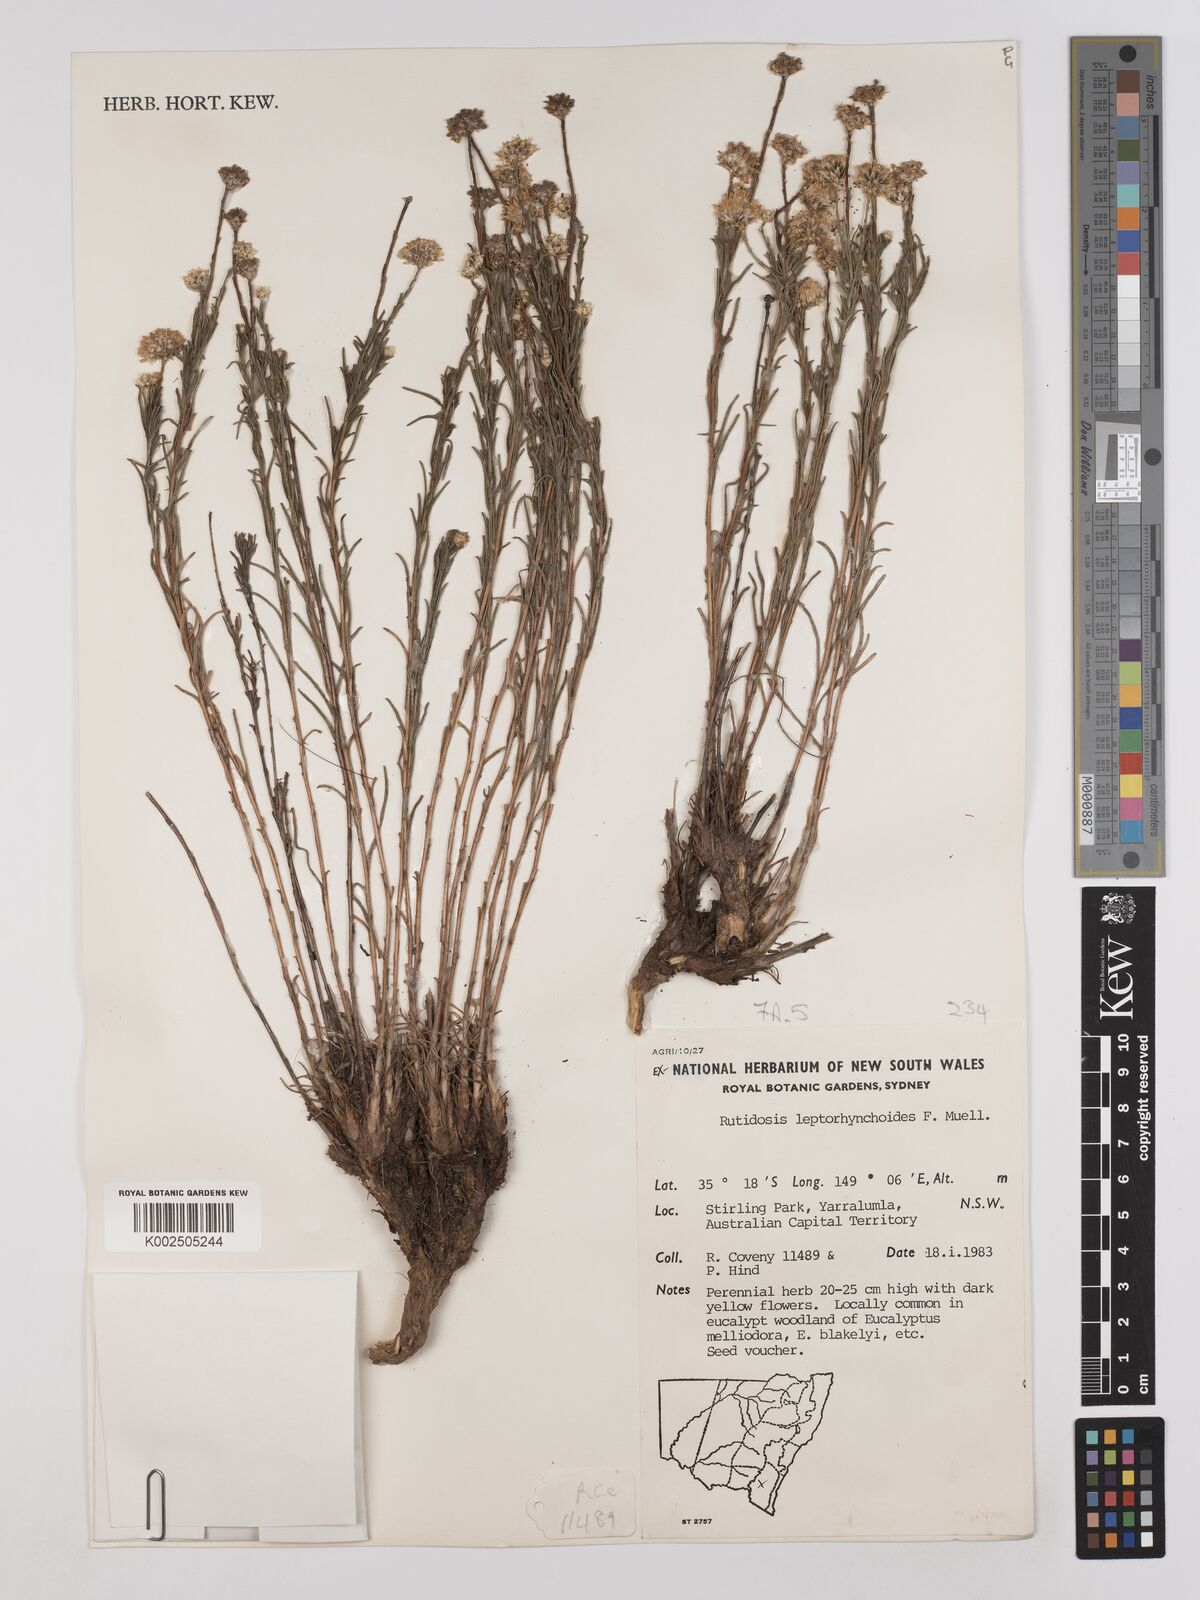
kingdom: Plantae
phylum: Tracheophyta
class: Magnoliopsida
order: Asterales
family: Asteraceae
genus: Rutidosis
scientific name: Rutidosis leptorrhynchoides
